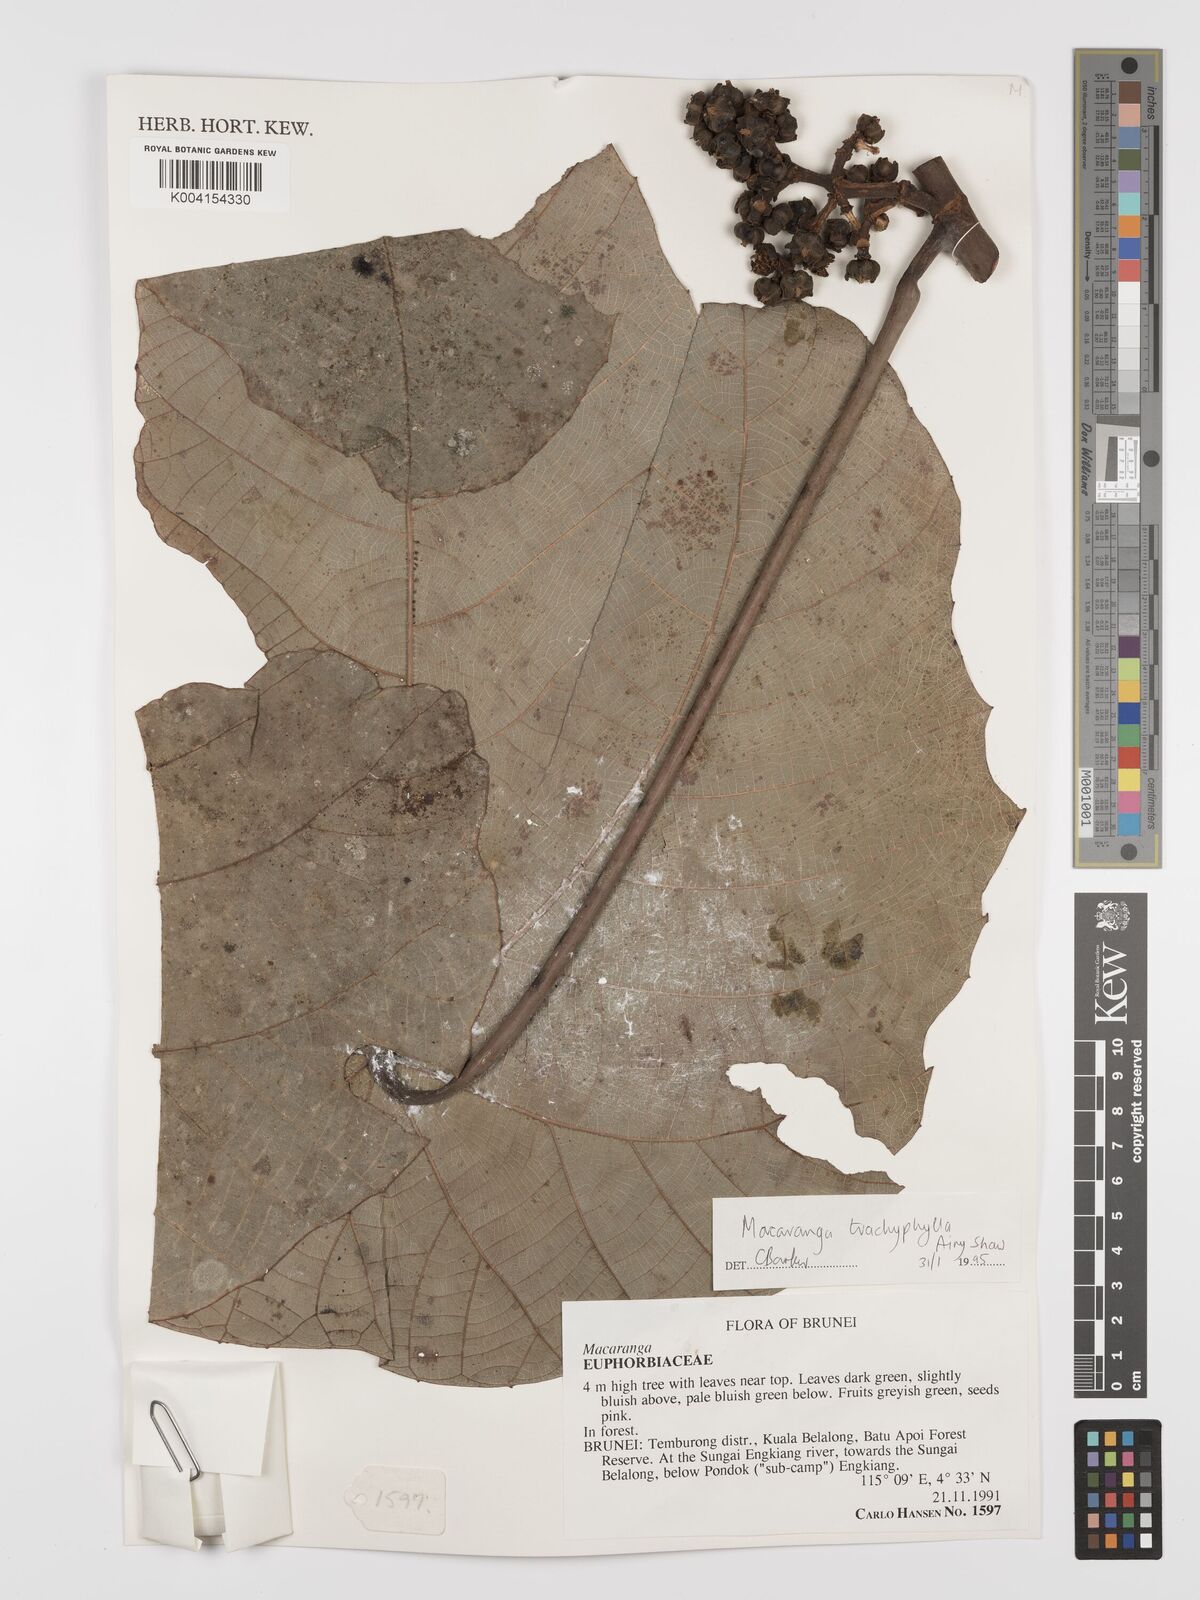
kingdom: Plantae
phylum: Tracheophyta
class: Magnoliopsida
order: Malpighiales
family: Euphorbiaceae
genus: Macaranga
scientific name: Macaranga trachyphylla
